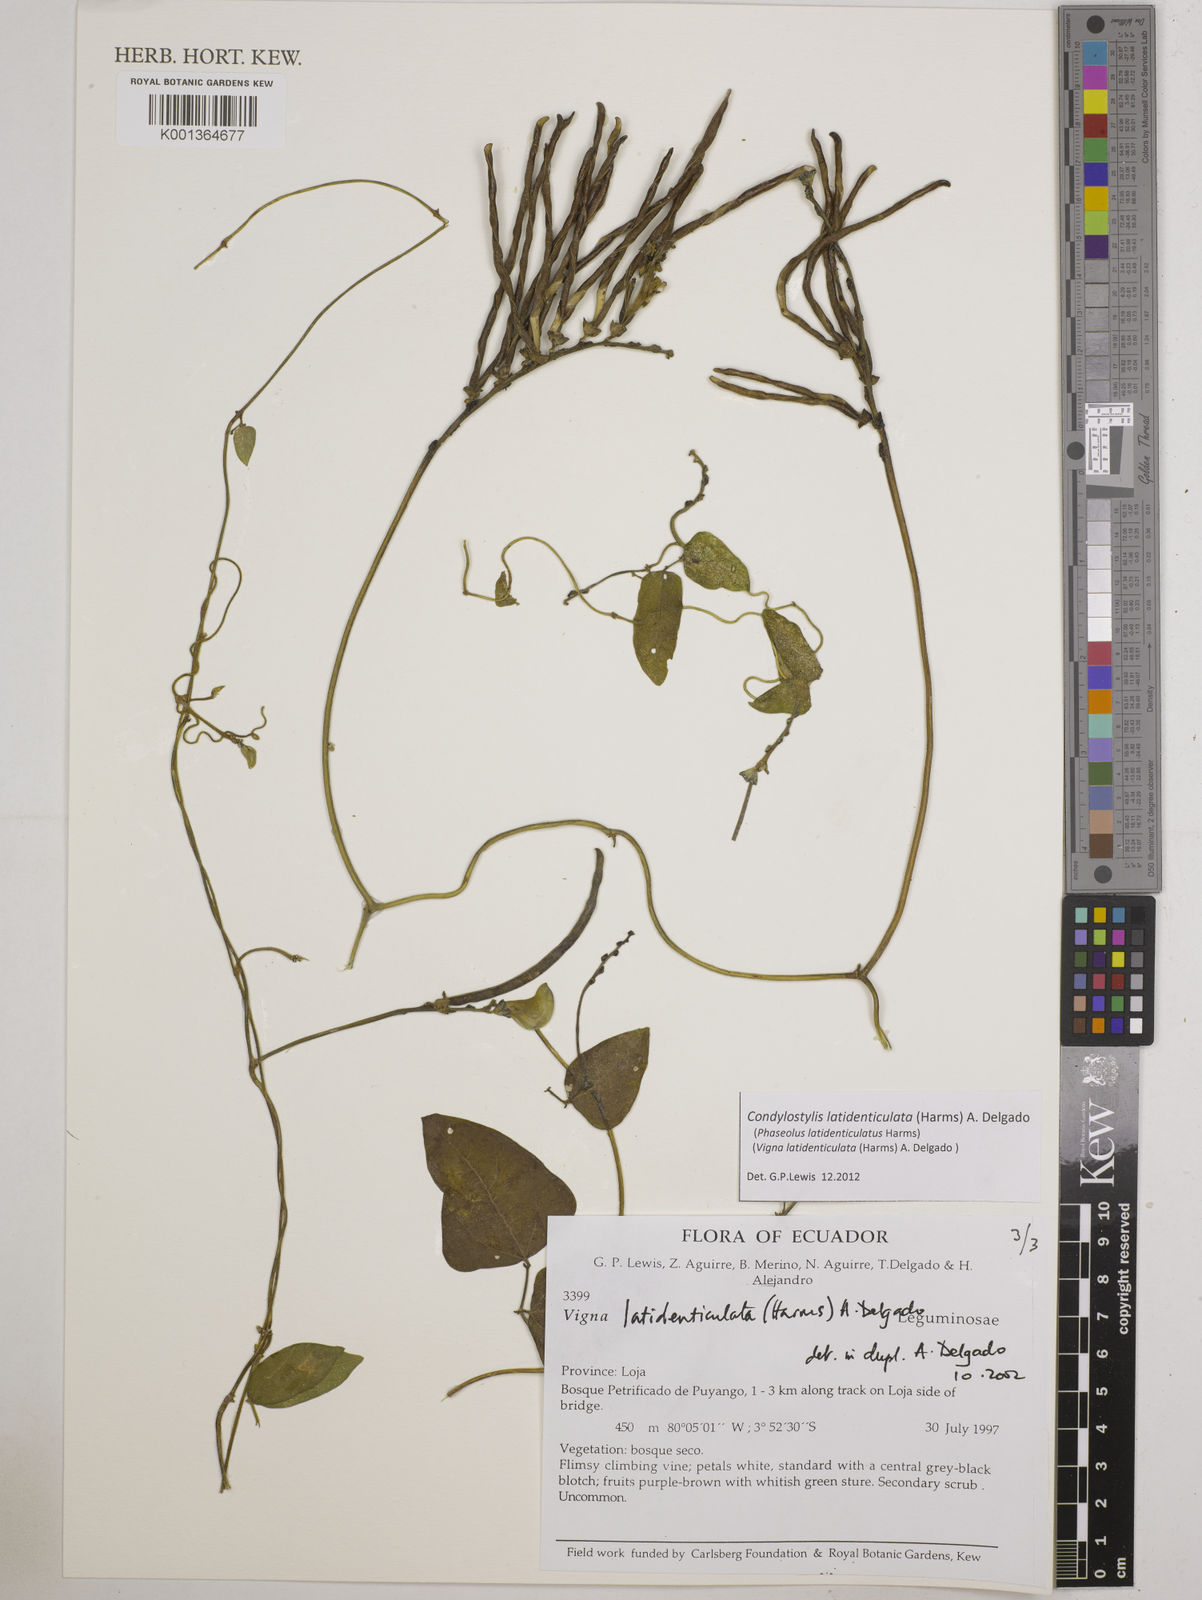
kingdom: Plantae
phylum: Tracheophyta
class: Magnoliopsida
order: Fabales
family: Fabaceae
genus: Condylostylis
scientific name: Condylostylis latidenticulata
